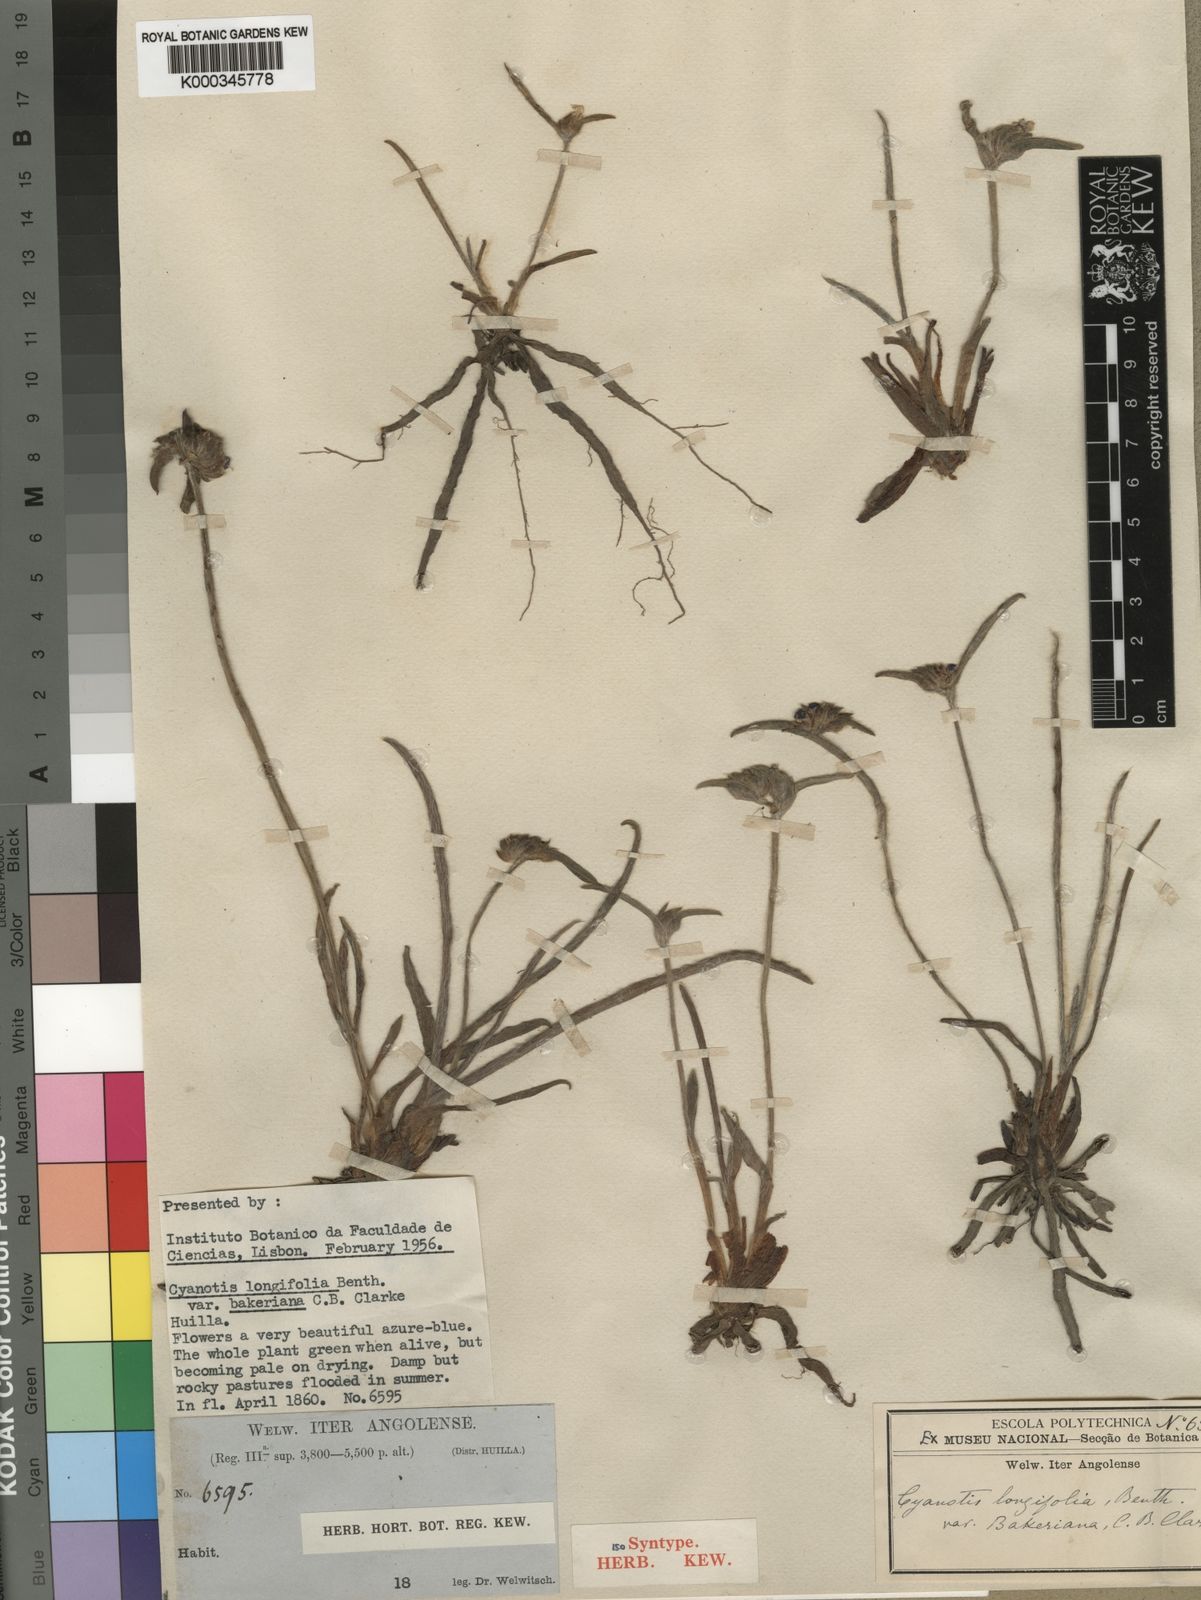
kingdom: Plantae
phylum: Tracheophyta
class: Liliopsida
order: Commelinales
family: Commelinaceae
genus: Cyanotis
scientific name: Cyanotis longifolia
